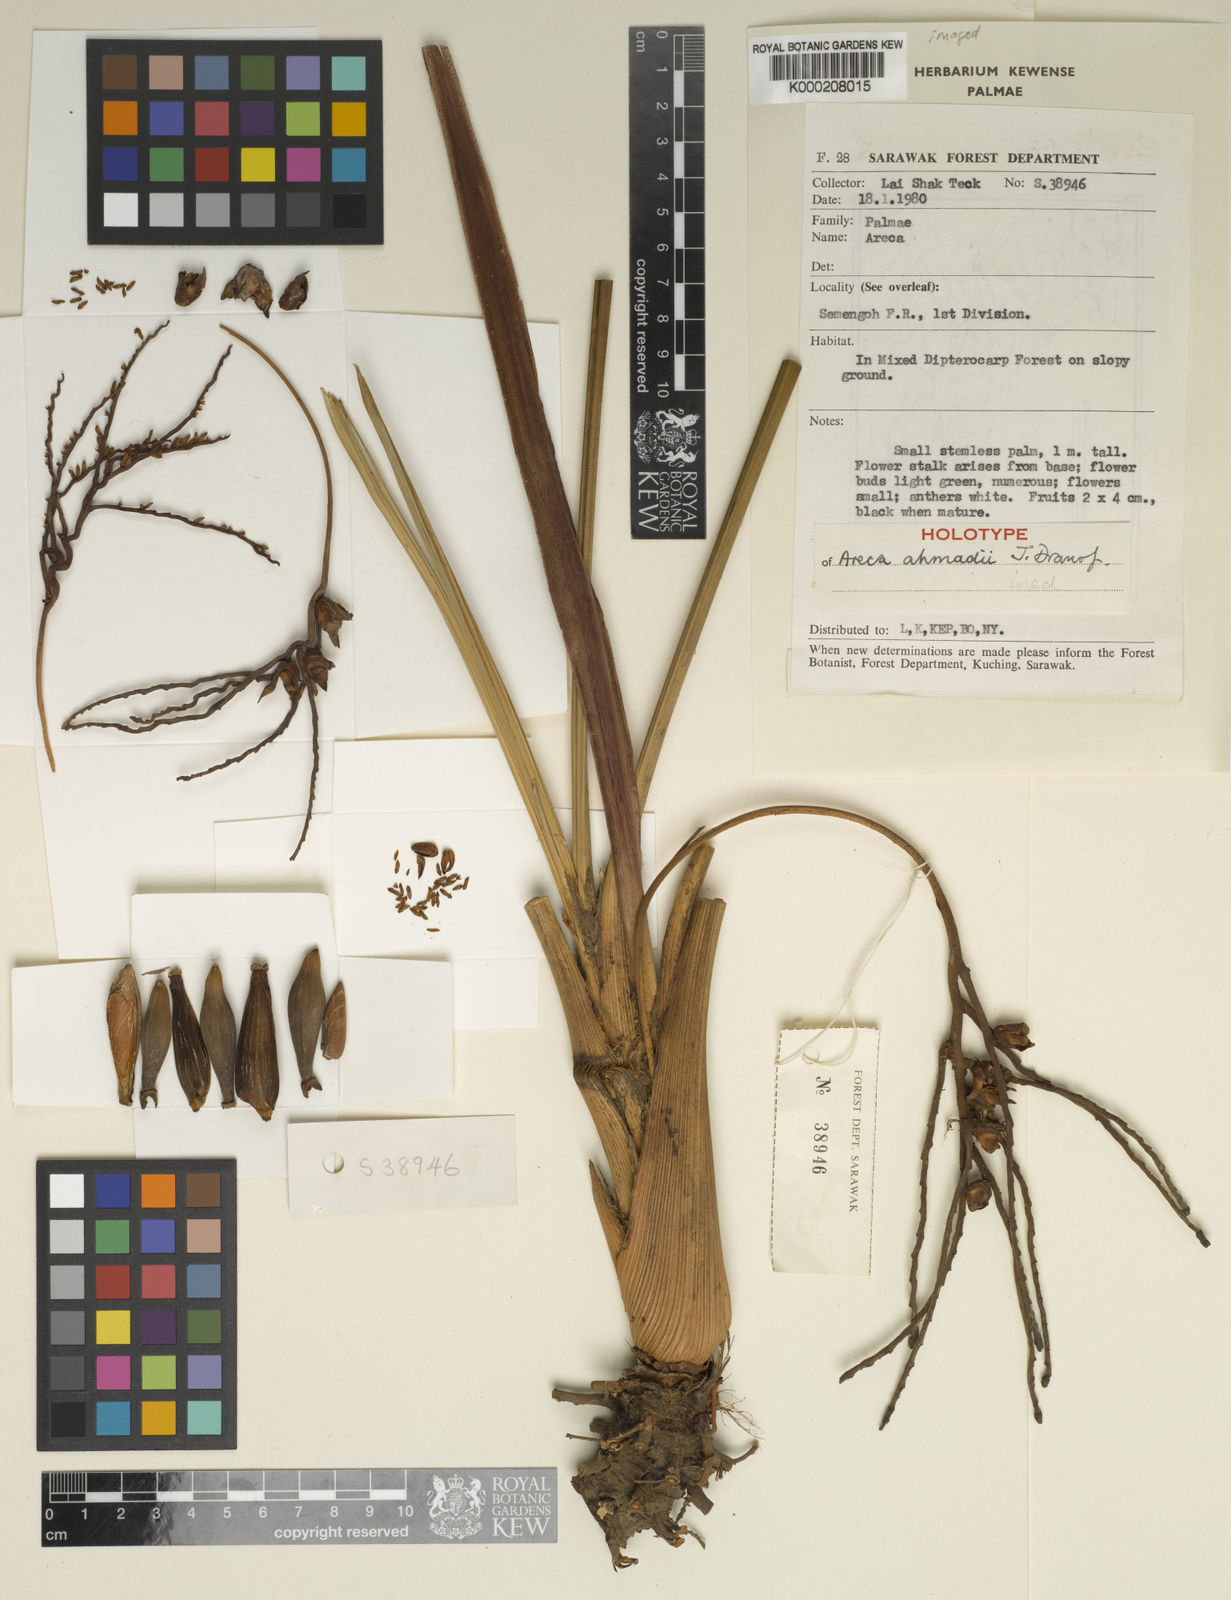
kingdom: Plantae
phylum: Tracheophyta
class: Liliopsida
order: Arecales
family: Arecaceae
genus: Areca
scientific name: Areca ahmadii
